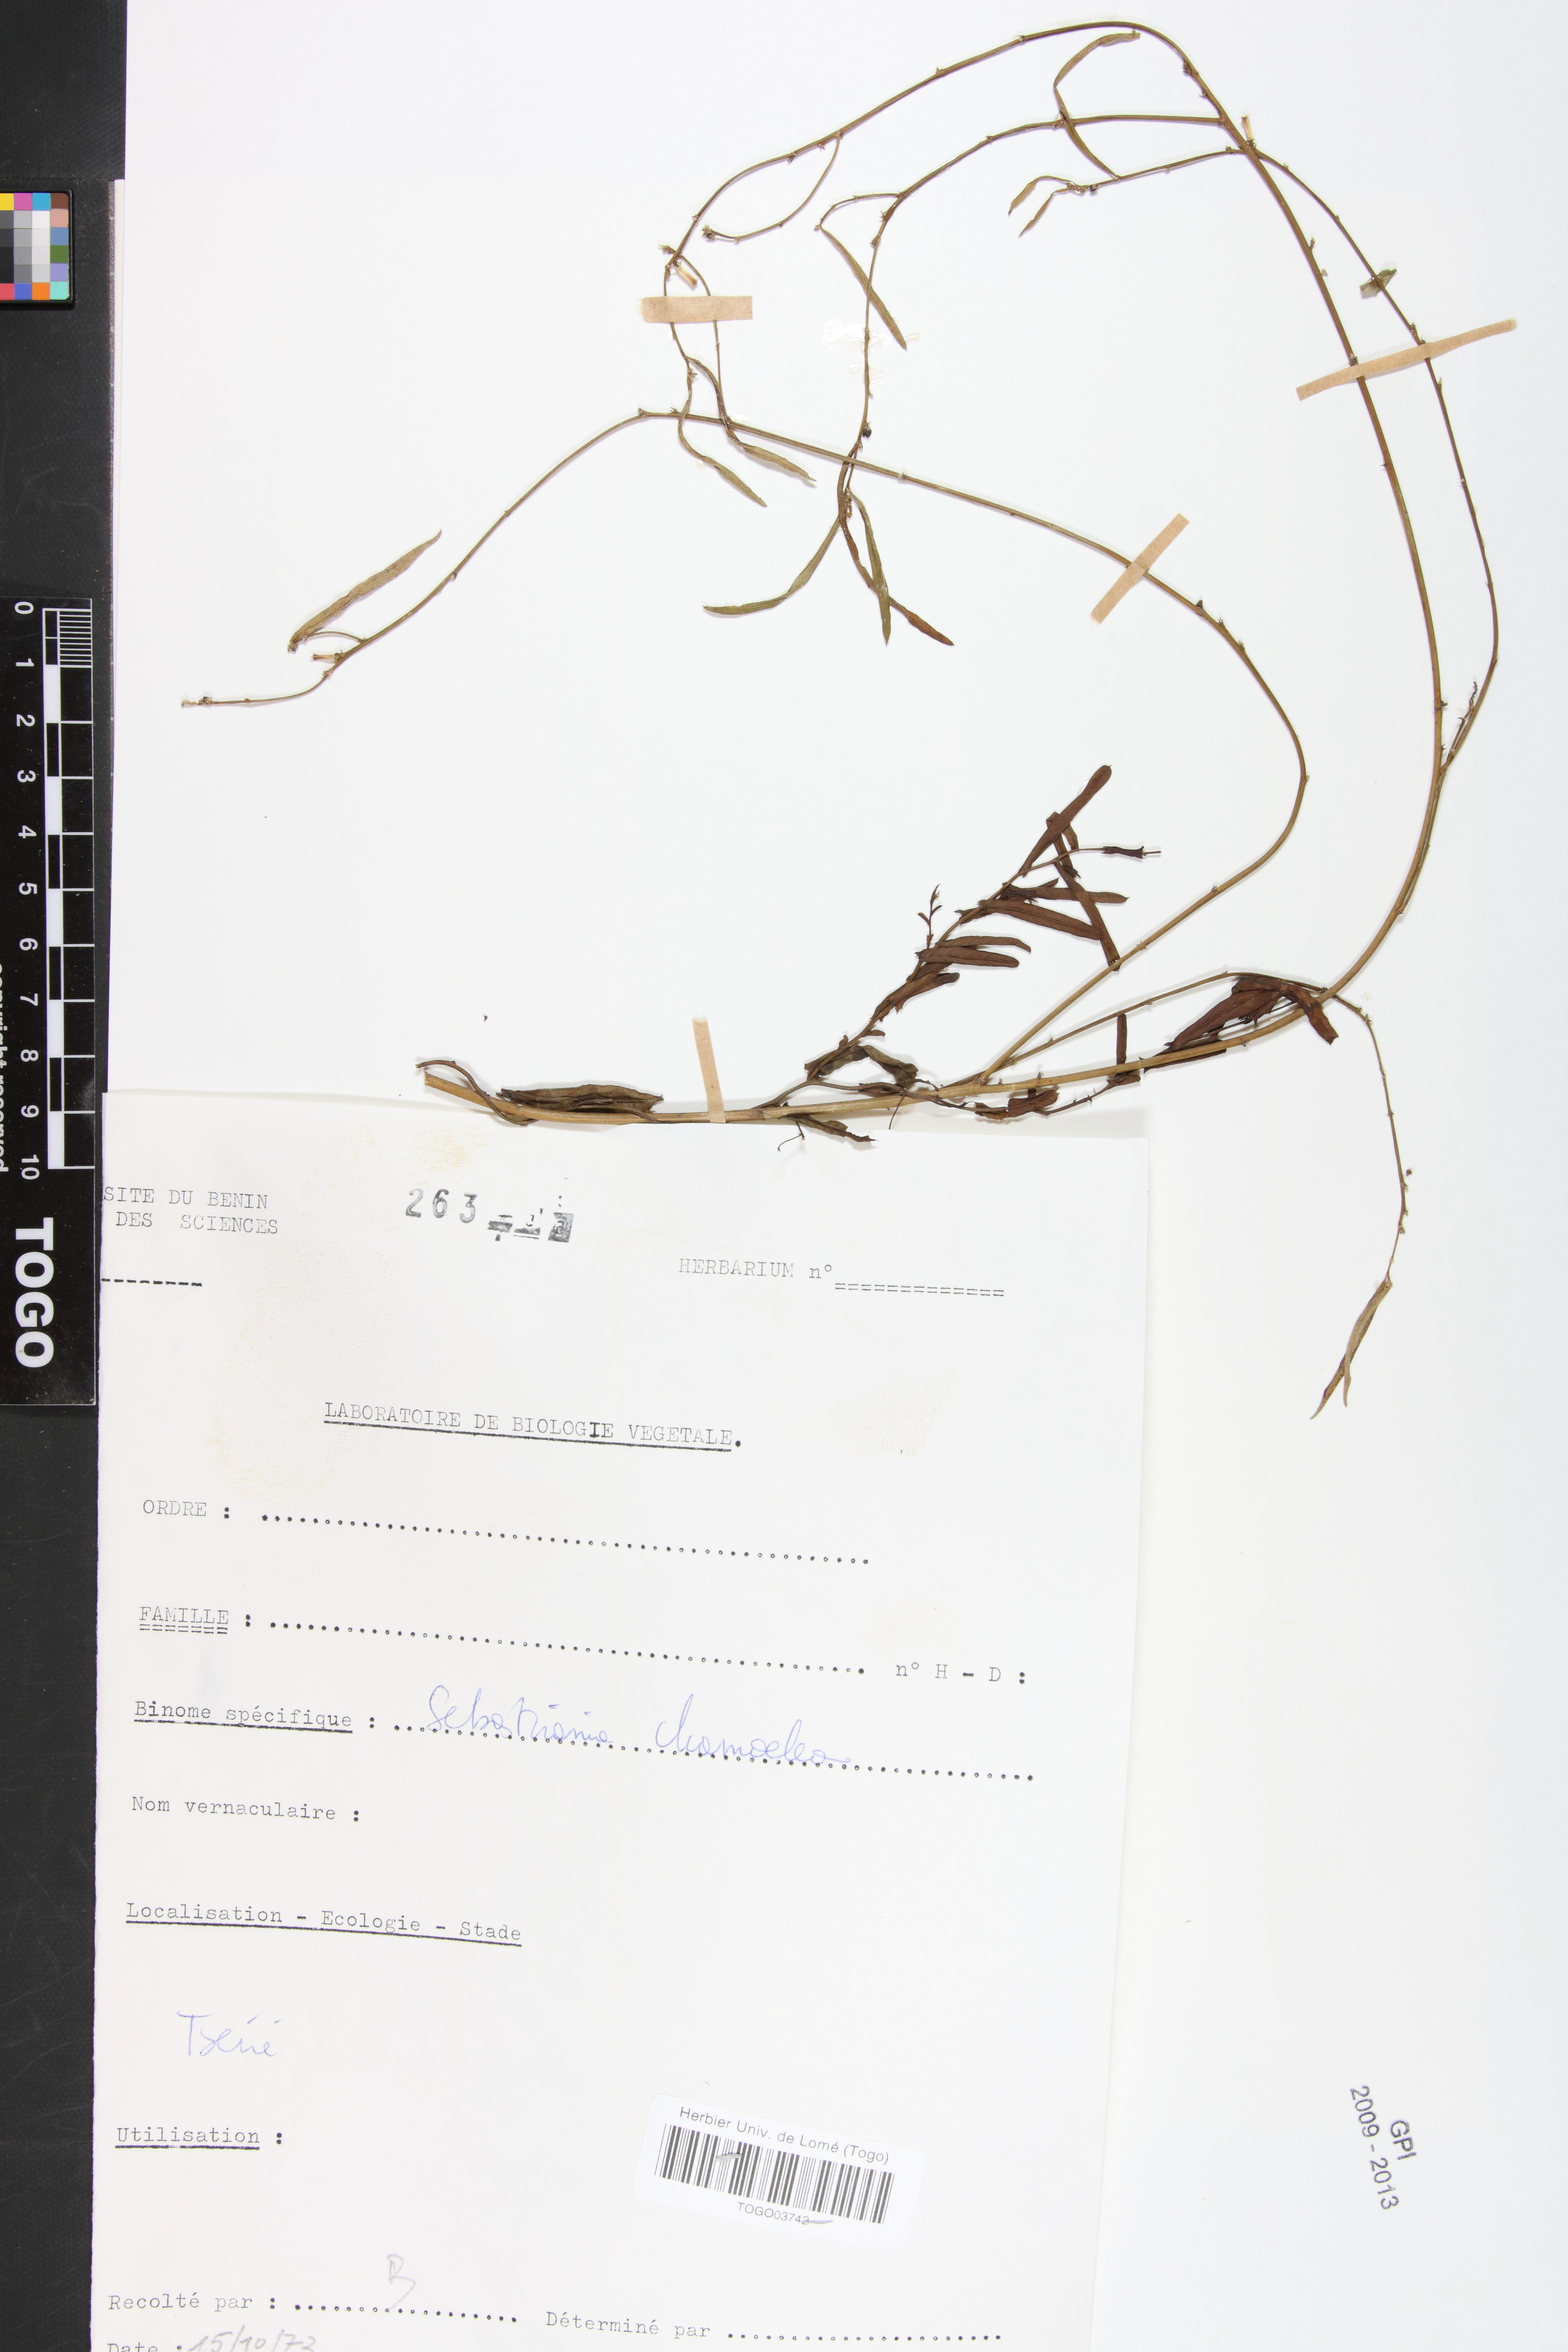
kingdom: Plantae
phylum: Tracheophyta
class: Magnoliopsida
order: Malpighiales
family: Euphorbiaceae
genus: Microstachys
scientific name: Microstachys chamaelea
